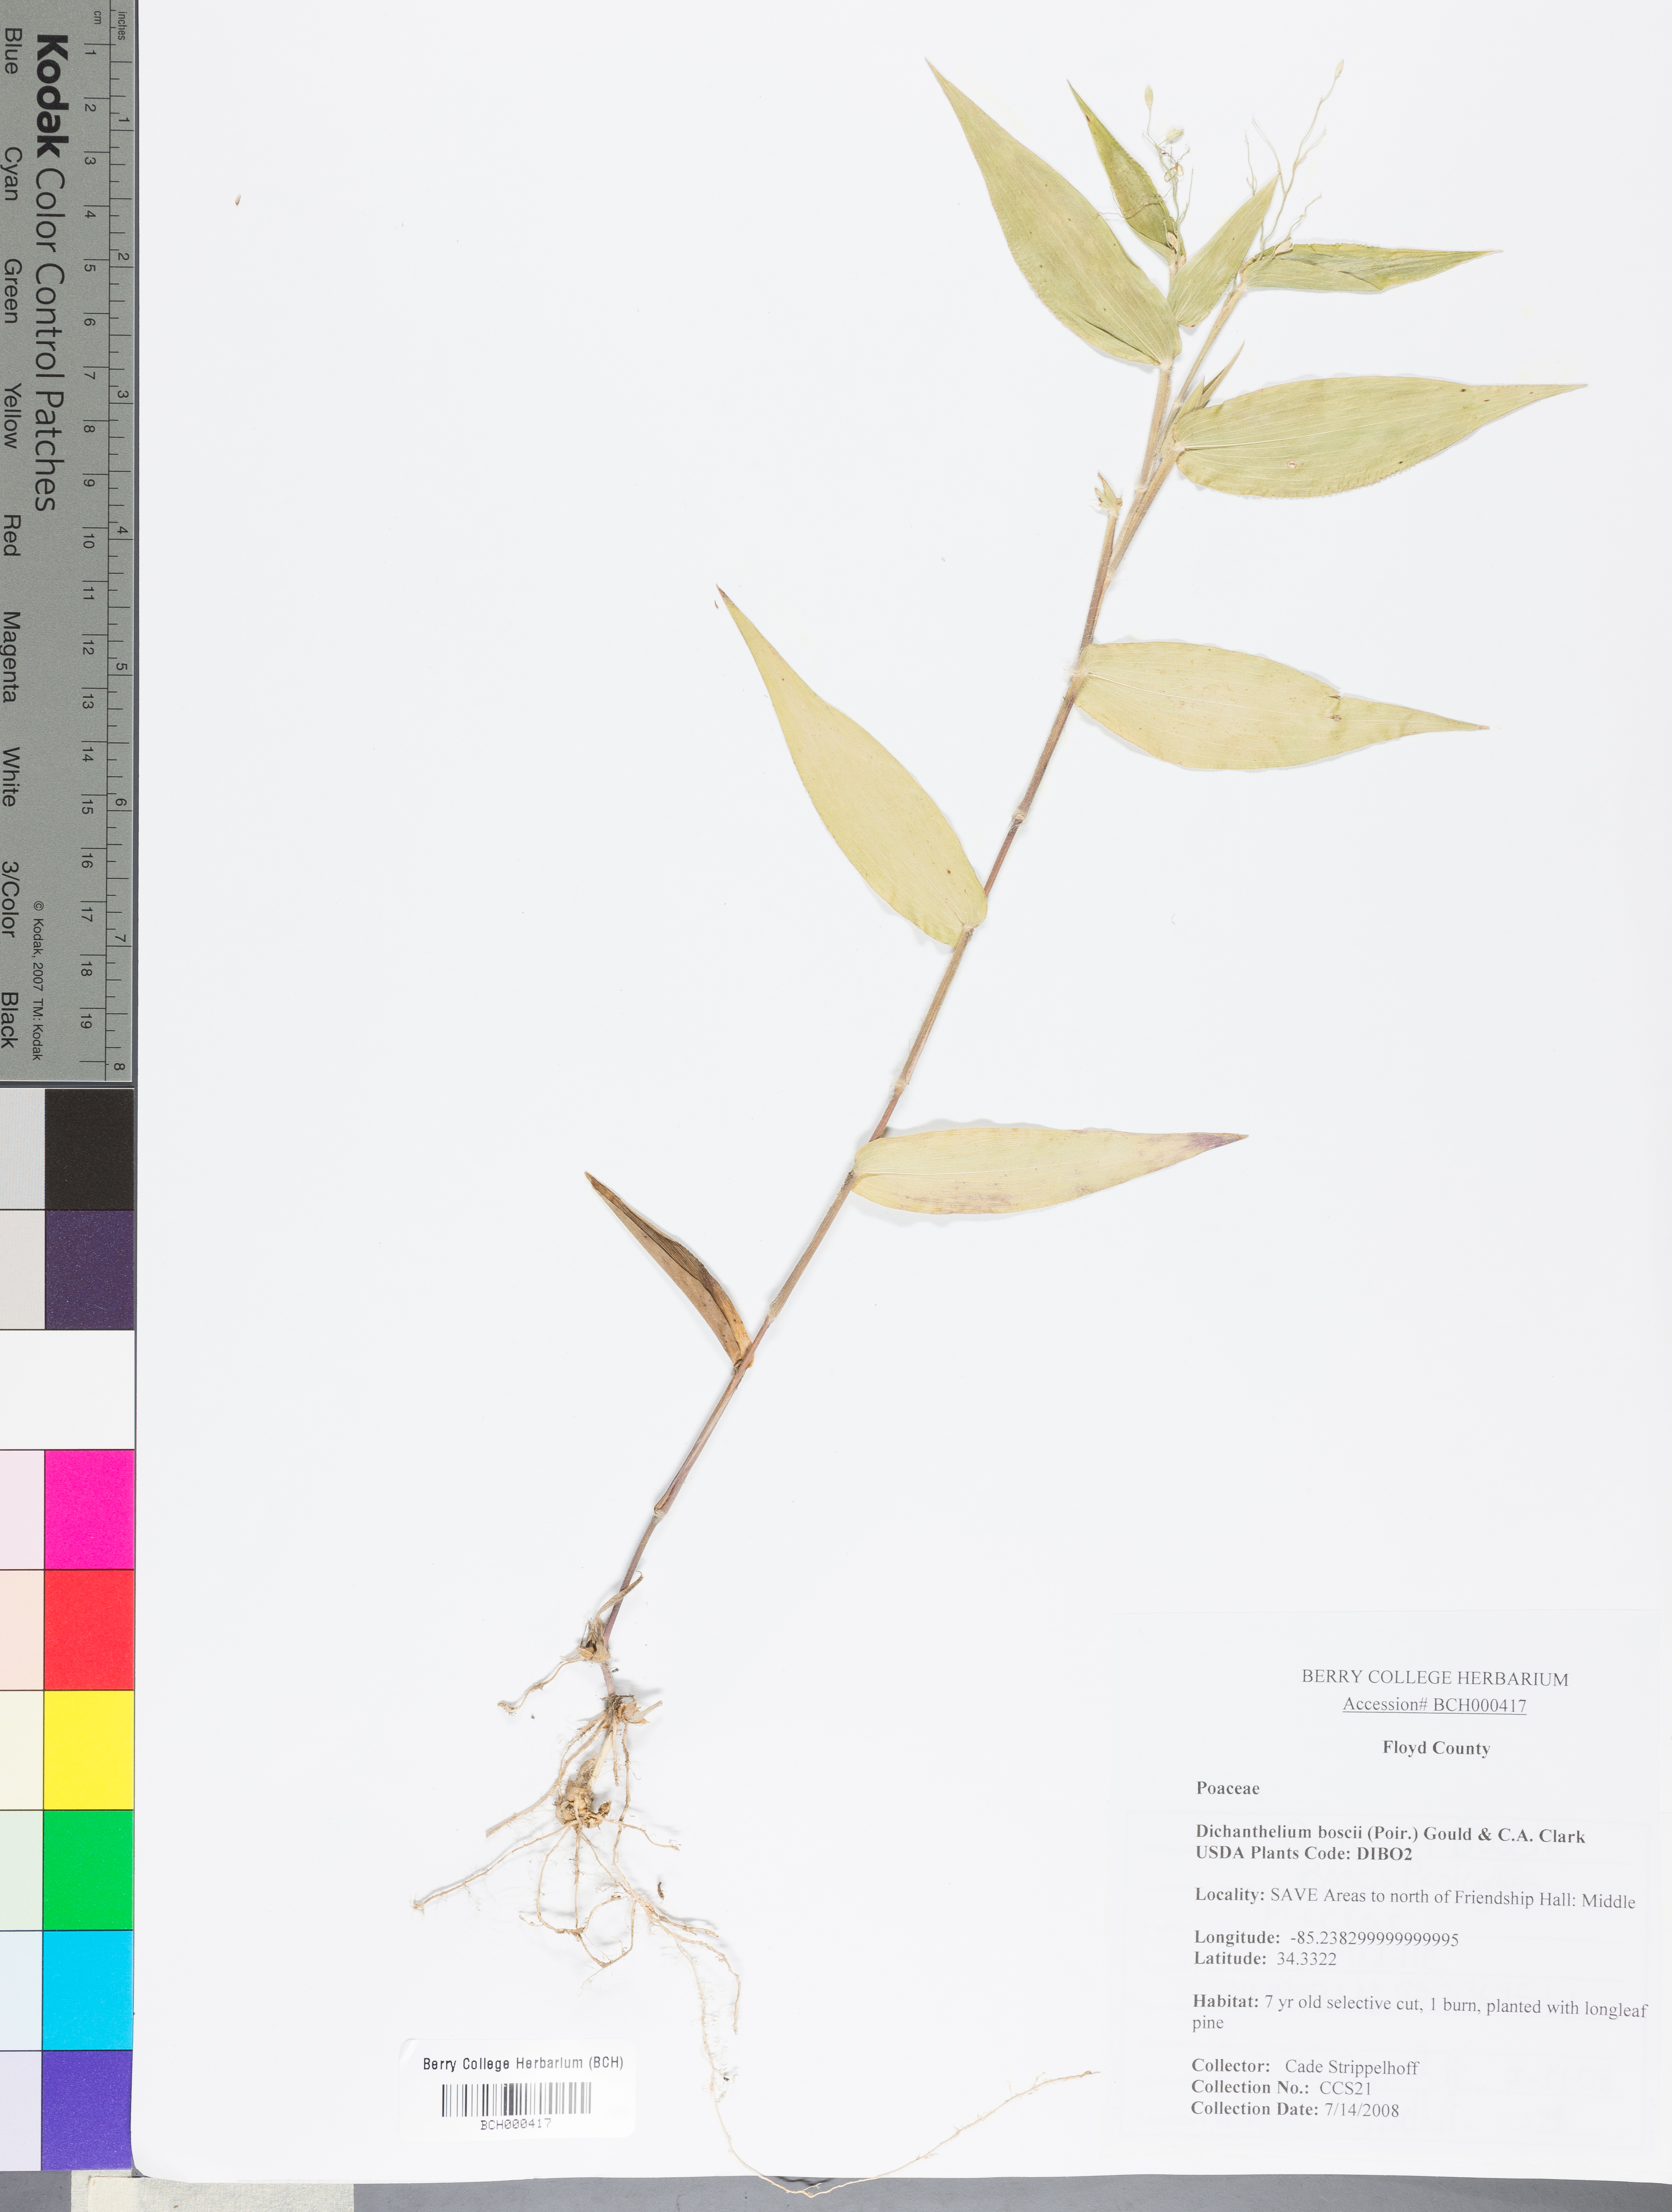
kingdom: Plantae
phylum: Tracheophyta
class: Liliopsida
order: Poales
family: Poaceae
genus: Dichanthelium
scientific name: Dichanthelium boscii
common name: Bosc's panic grass
